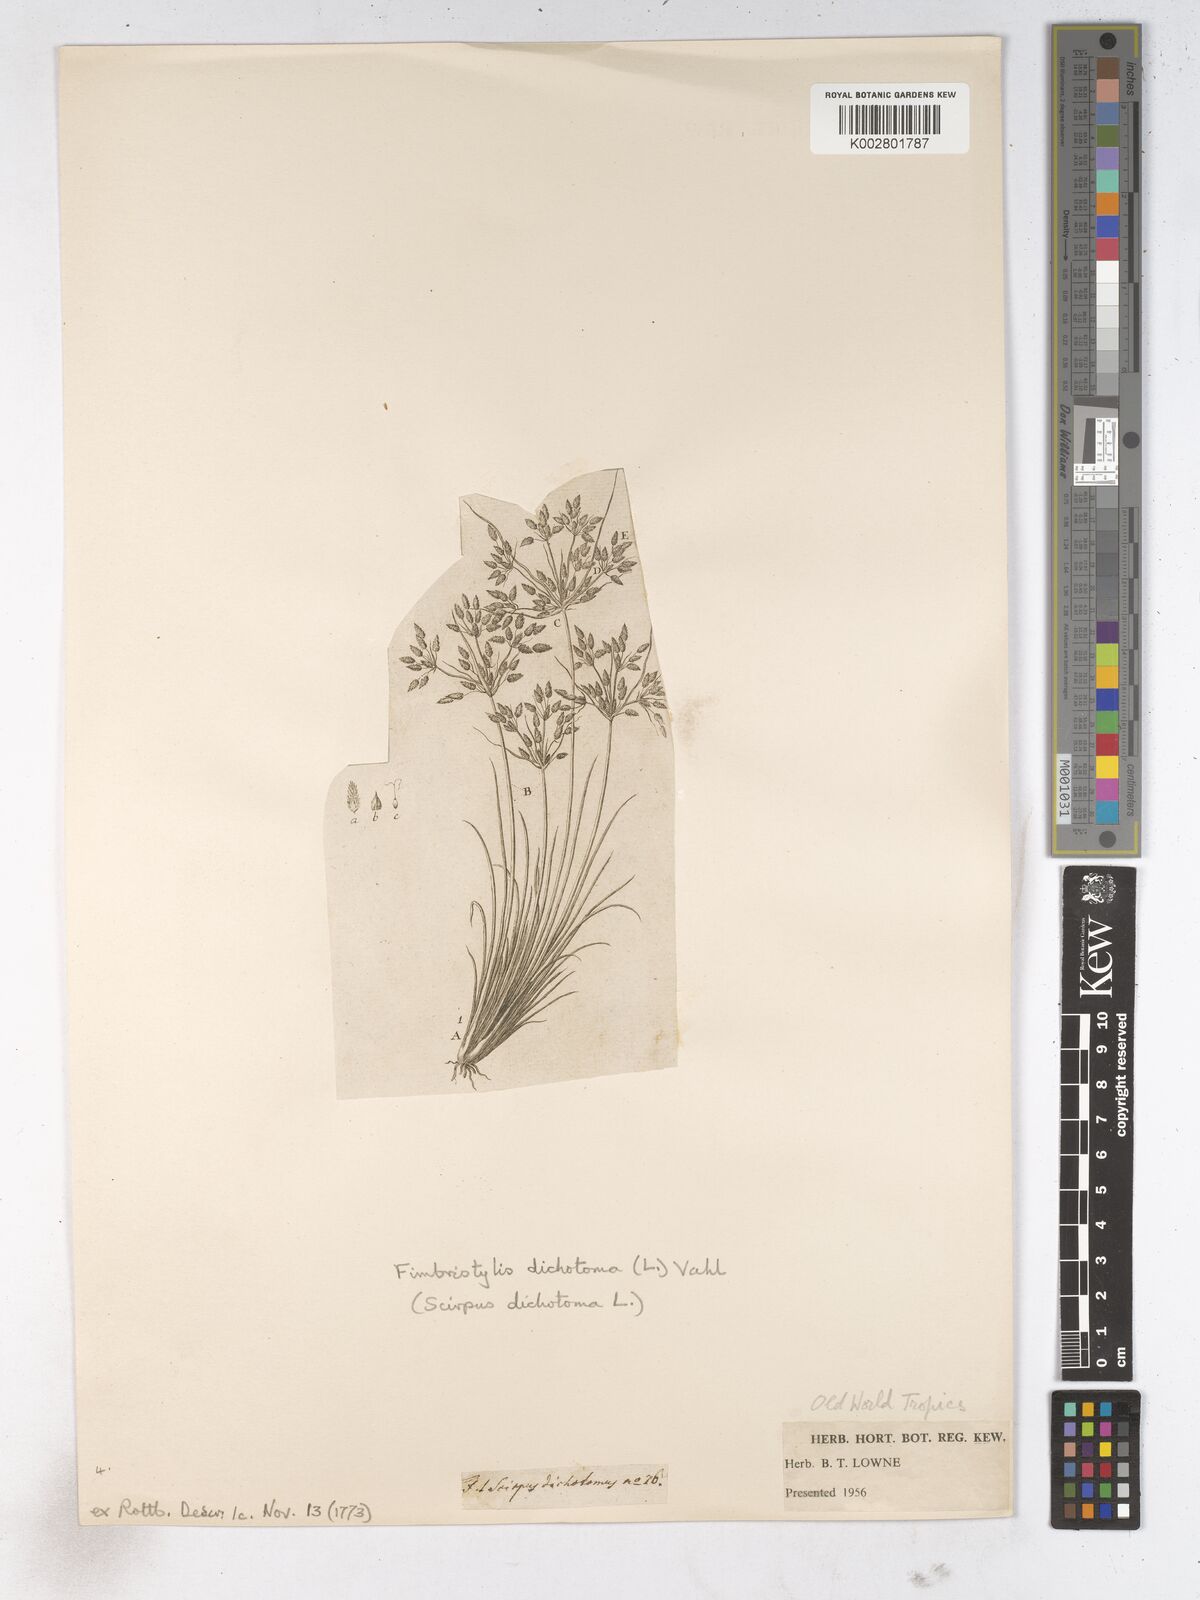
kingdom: Plantae
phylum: Tracheophyta
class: Liliopsida
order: Poales
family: Cyperaceae
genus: Fimbristylis
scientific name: Fimbristylis dichotoma
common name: Forked fimbry
